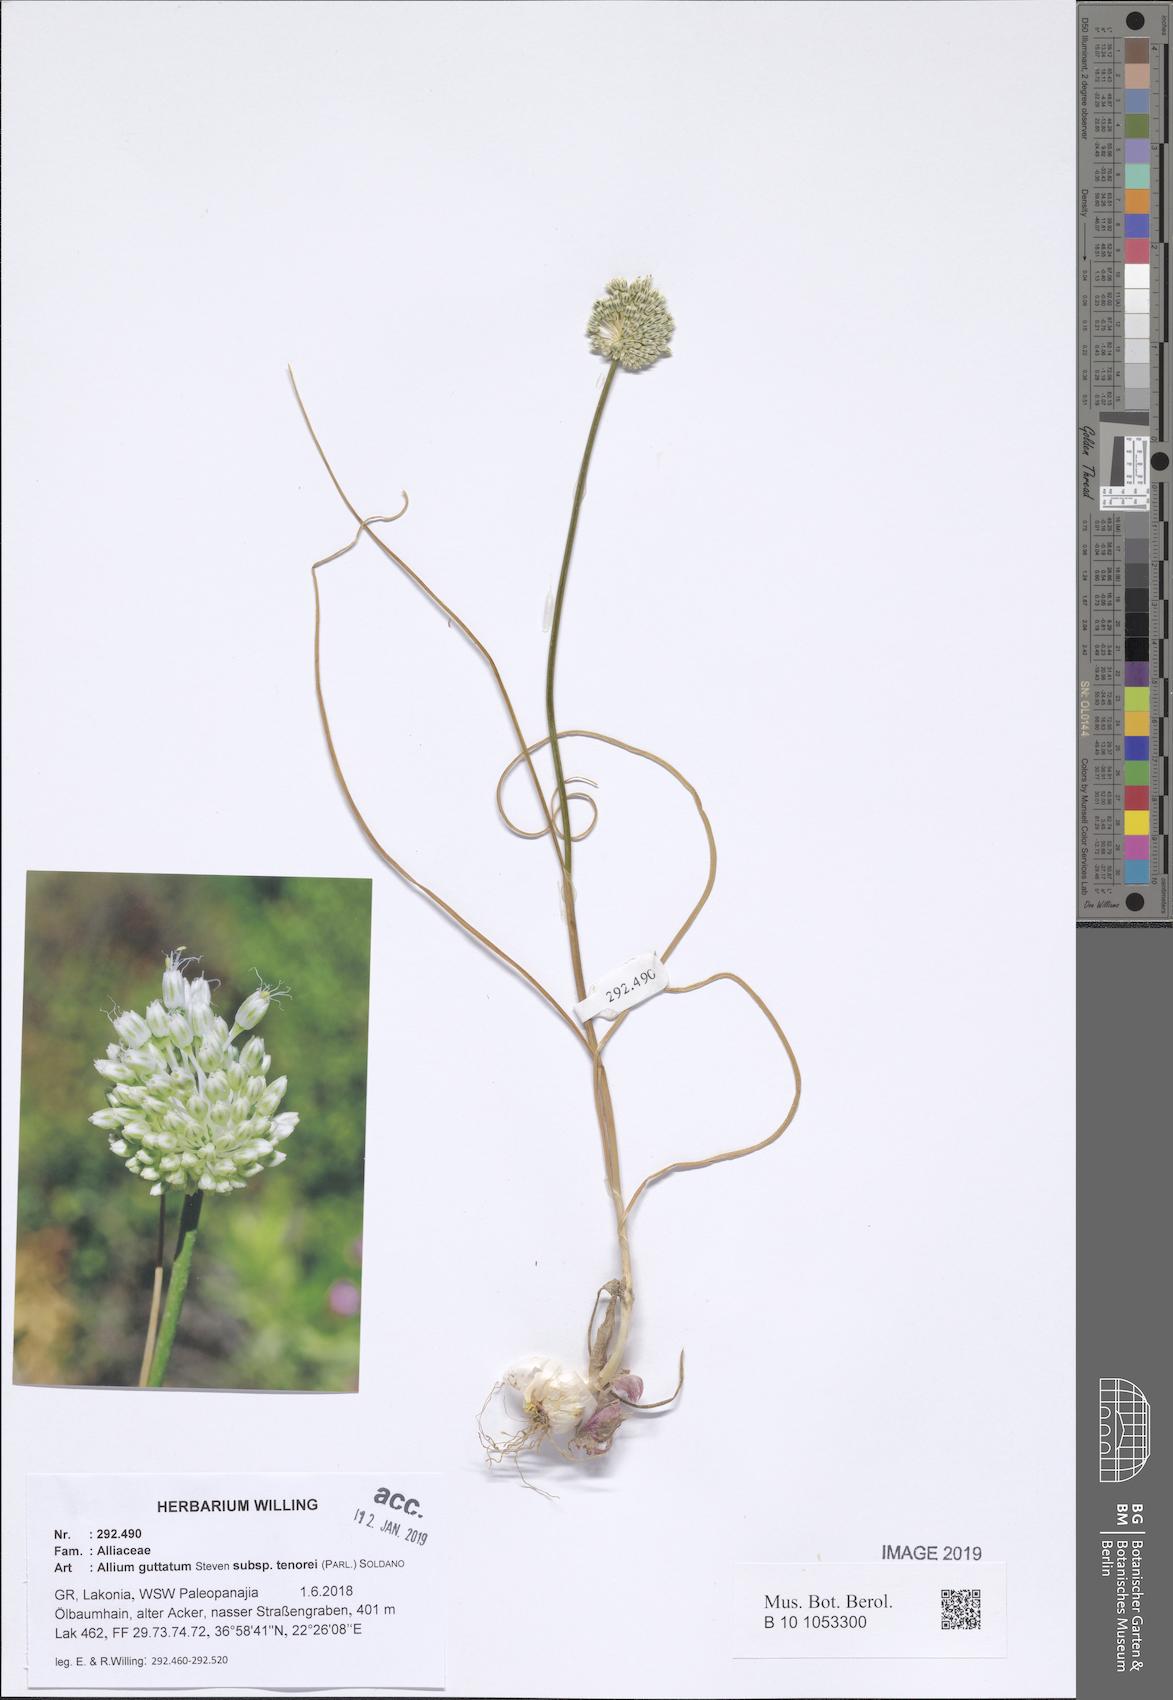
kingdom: Plantae
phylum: Tracheophyta
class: Liliopsida
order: Asparagales
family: Amaryllidaceae
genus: Allium
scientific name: Allium sardoum
